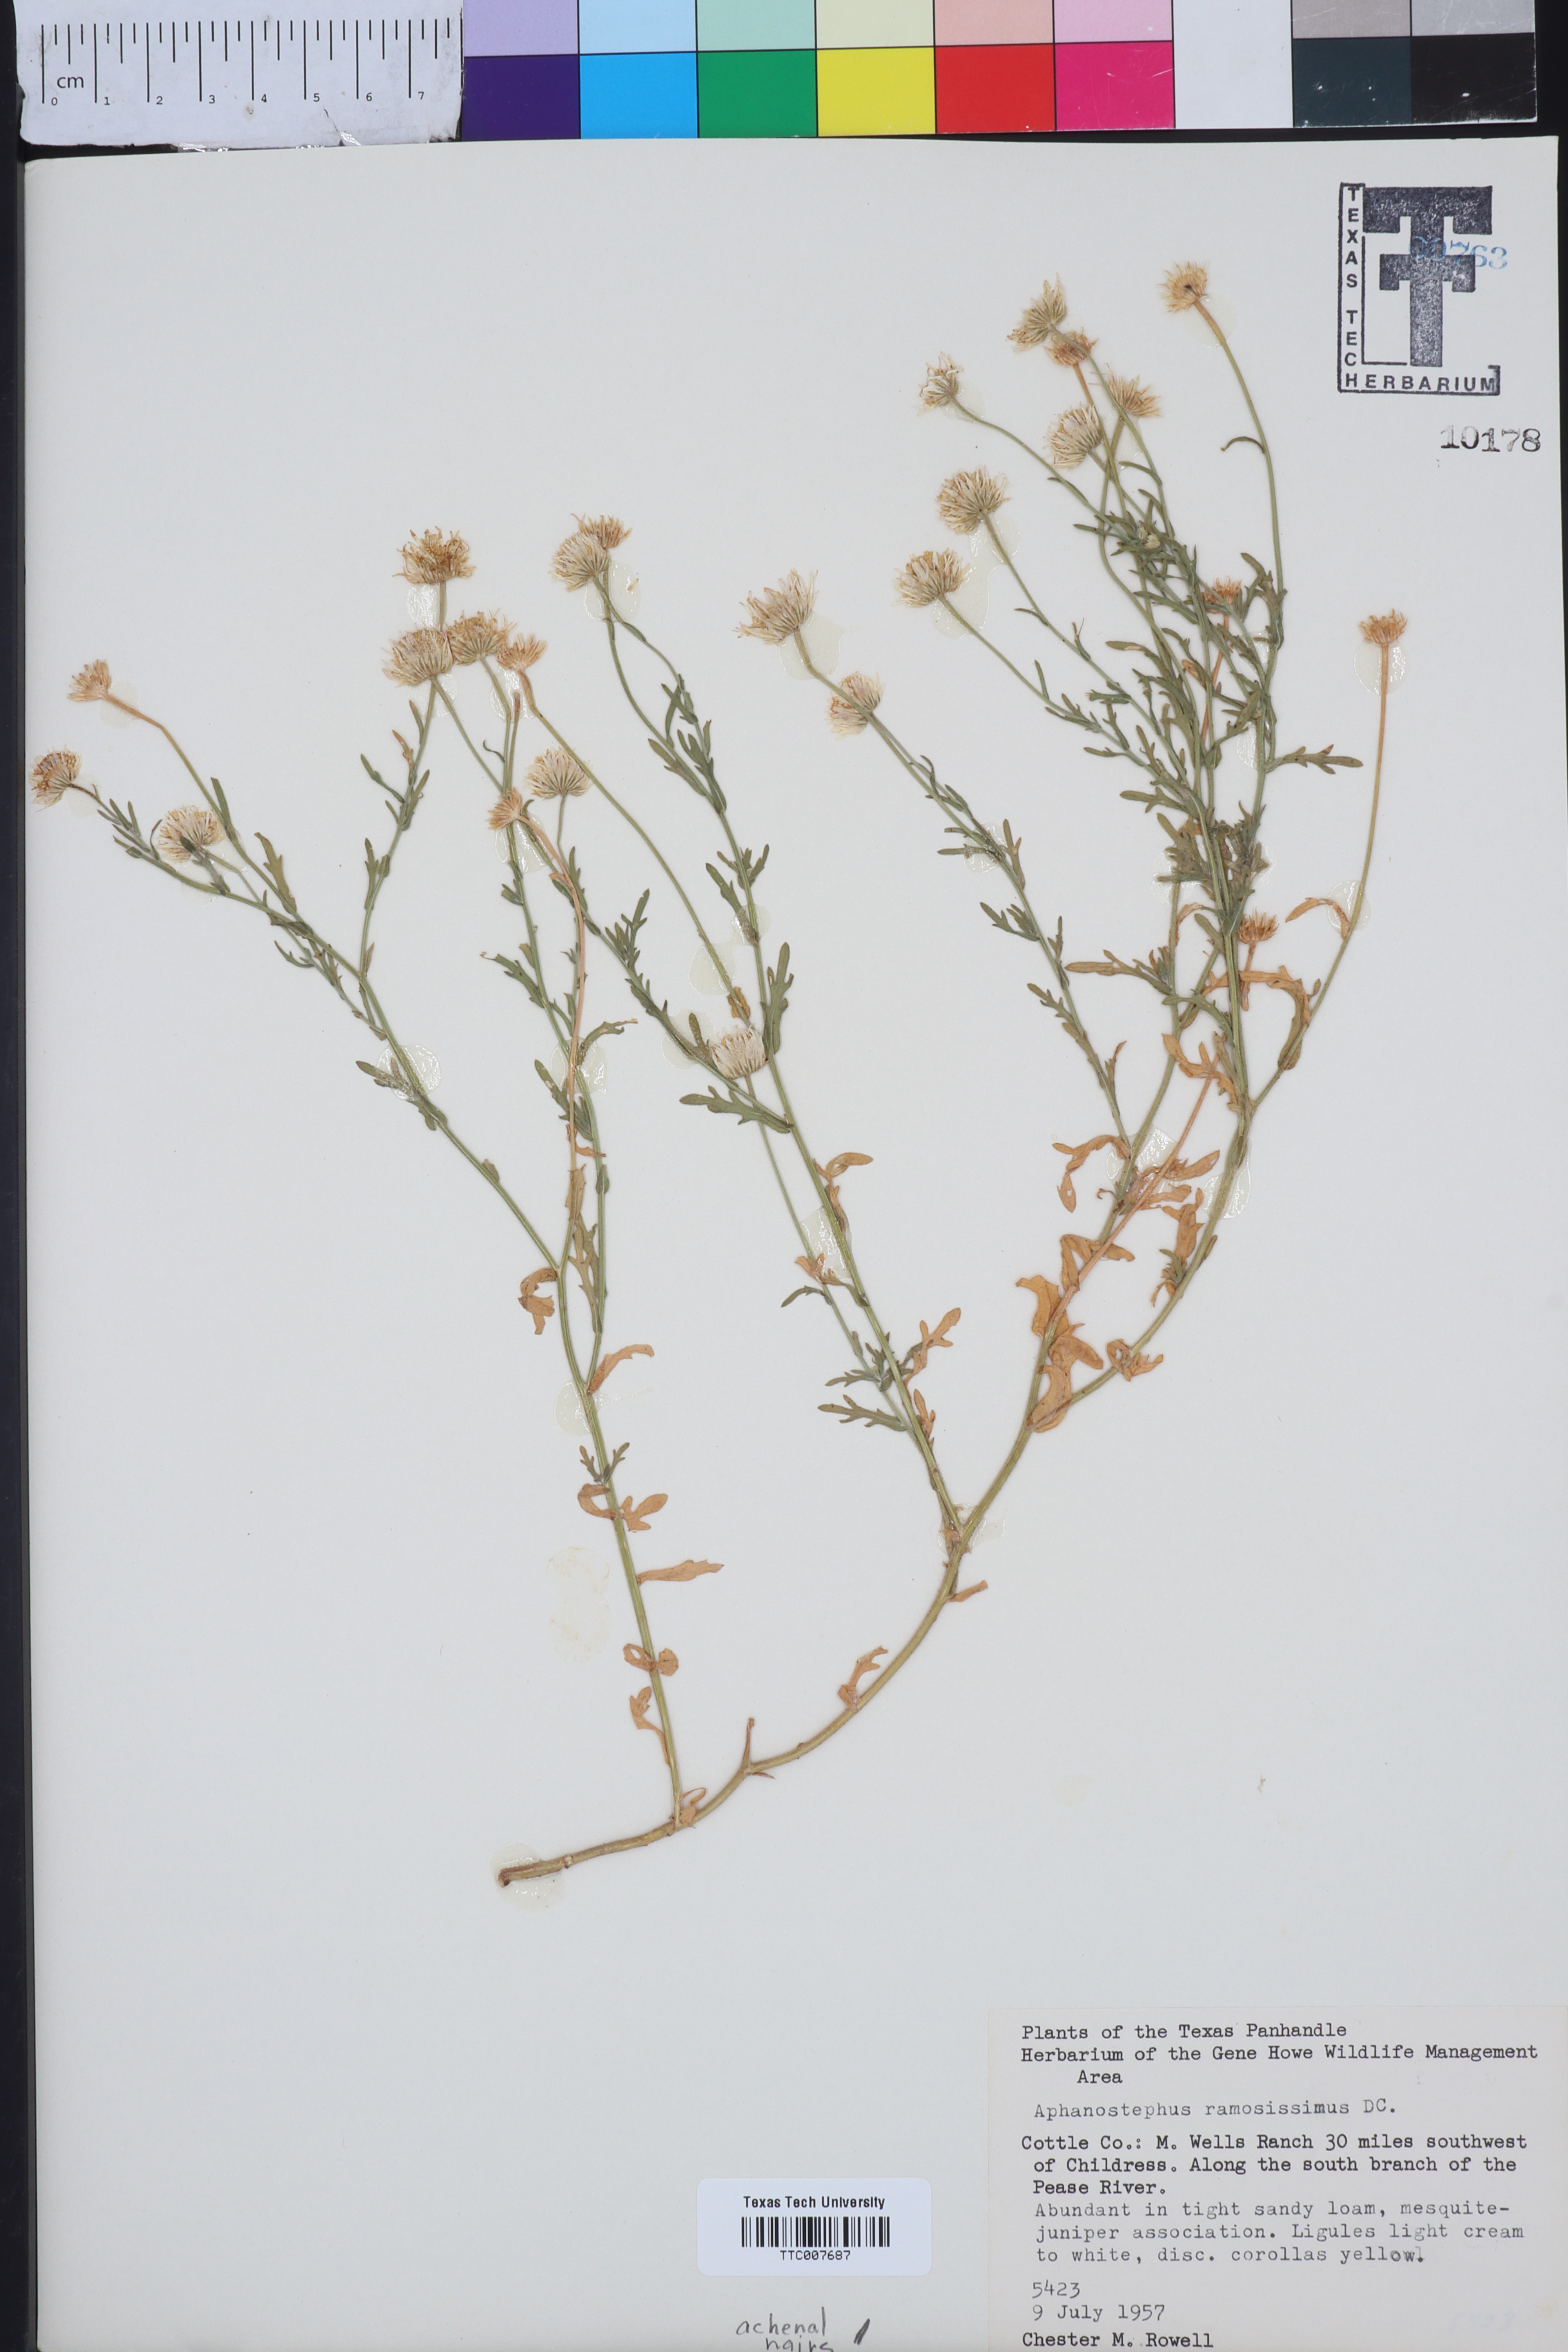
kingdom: Plantae
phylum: Tracheophyta
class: Magnoliopsida
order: Asterales
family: Asteraceae
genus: Aphanostephus
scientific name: Aphanostephus ramosissimus
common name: Plains lazy daisy
